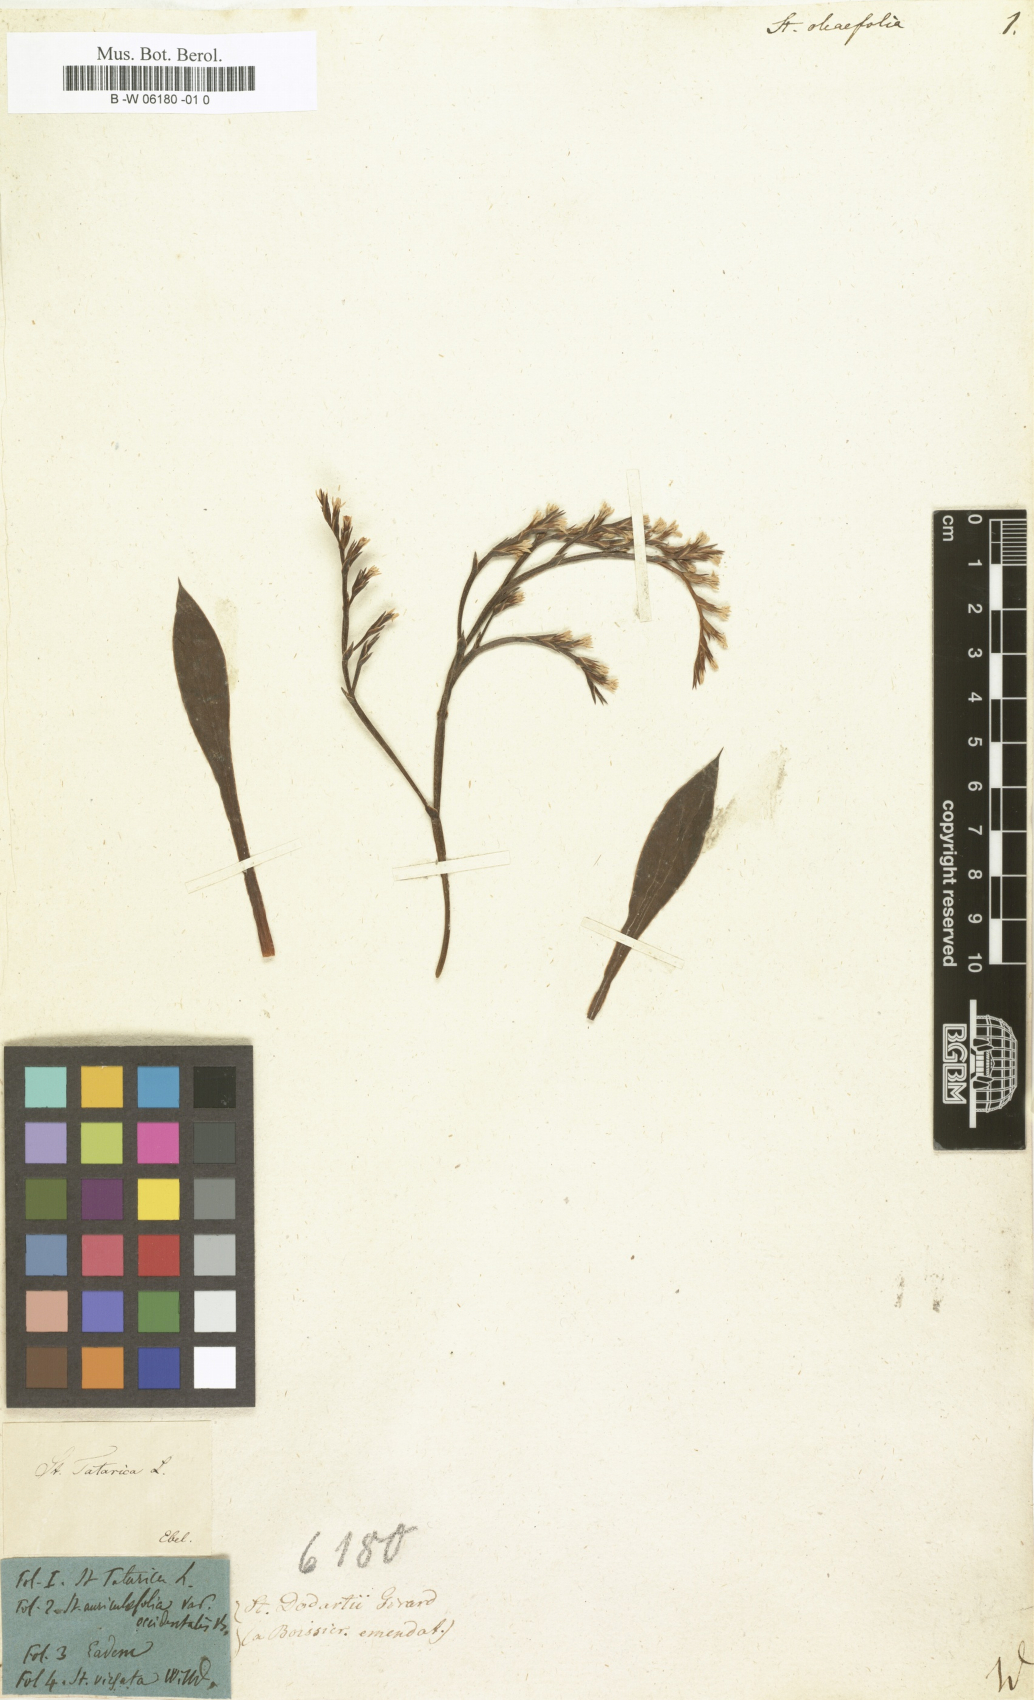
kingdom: Plantae
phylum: Tracheophyta
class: Magnoliopsida
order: Caryophyllales
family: Plumbaginaceae
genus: Limonium
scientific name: Limonium
